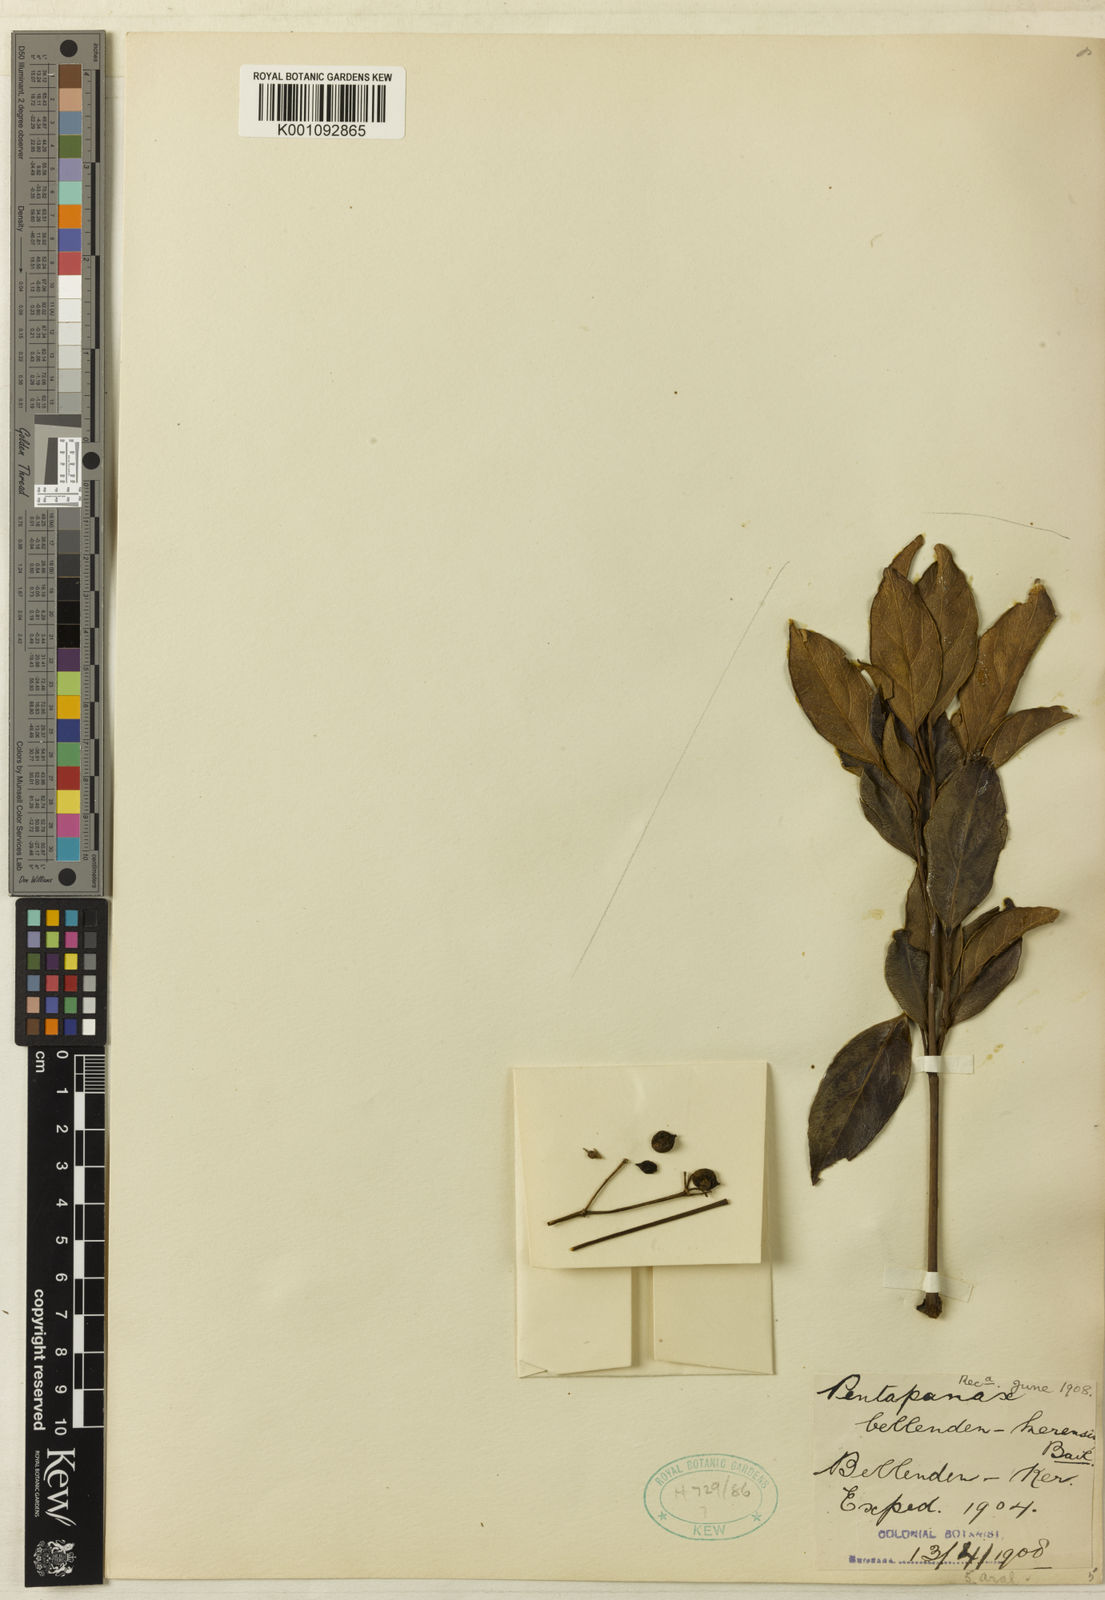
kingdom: Plantae
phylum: Tracheophyta
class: Magnoliopsida
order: Apiales
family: Araliaceae
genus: Polyscias
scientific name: Polyscias
